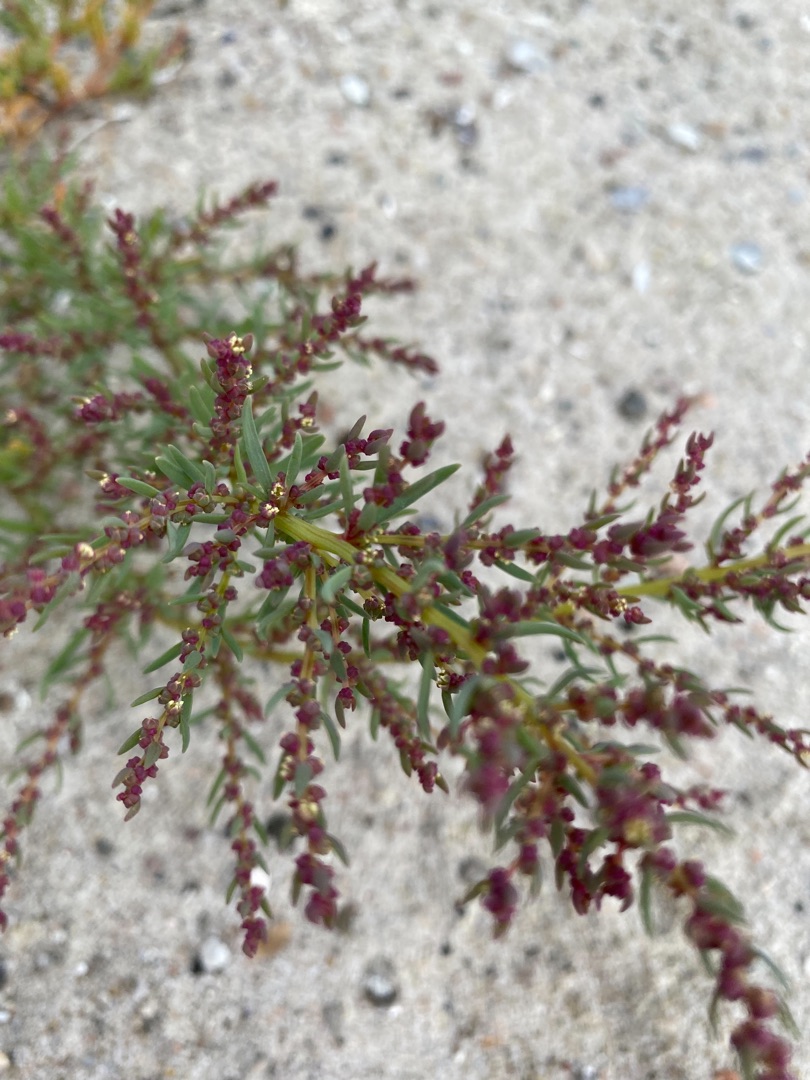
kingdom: Plantae
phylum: Tracheophyta
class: Magnoliopsida
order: Caryophyllales
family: Amaranthaceae
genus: Suaeda
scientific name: Suaeda maritima
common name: Strandgåsefod
